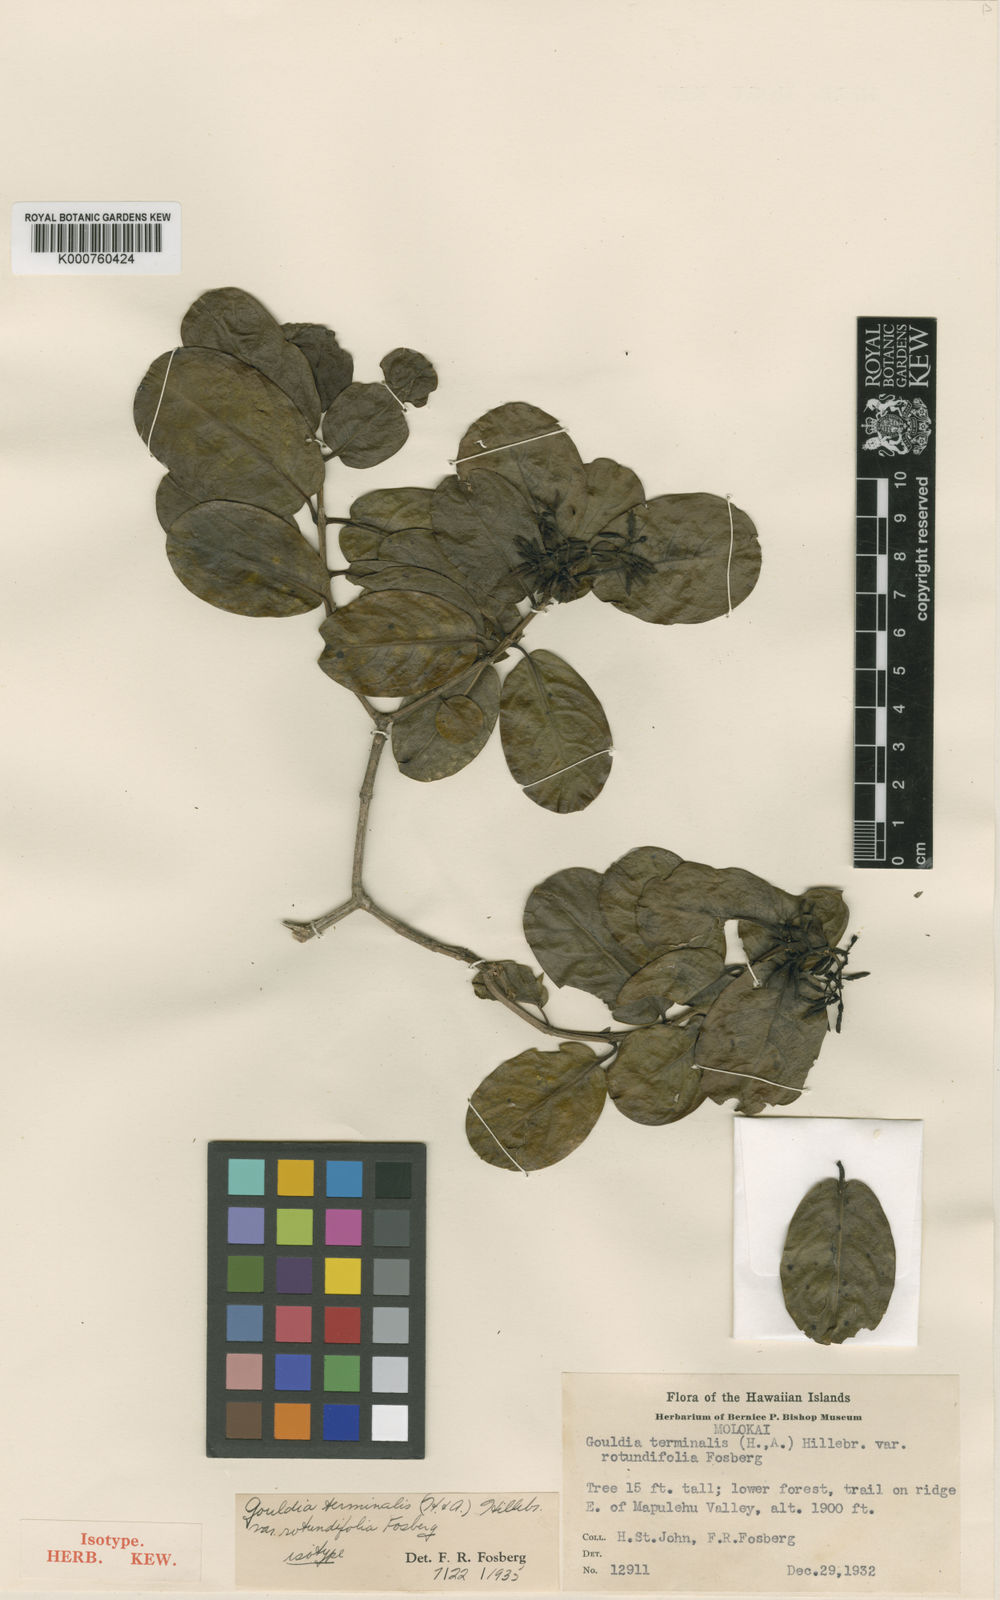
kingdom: Plantae
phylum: Tracheophyta
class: Magnoliopsida
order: Gentianales
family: Rubiaceae
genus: Kadua
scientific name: Kadua affinis
